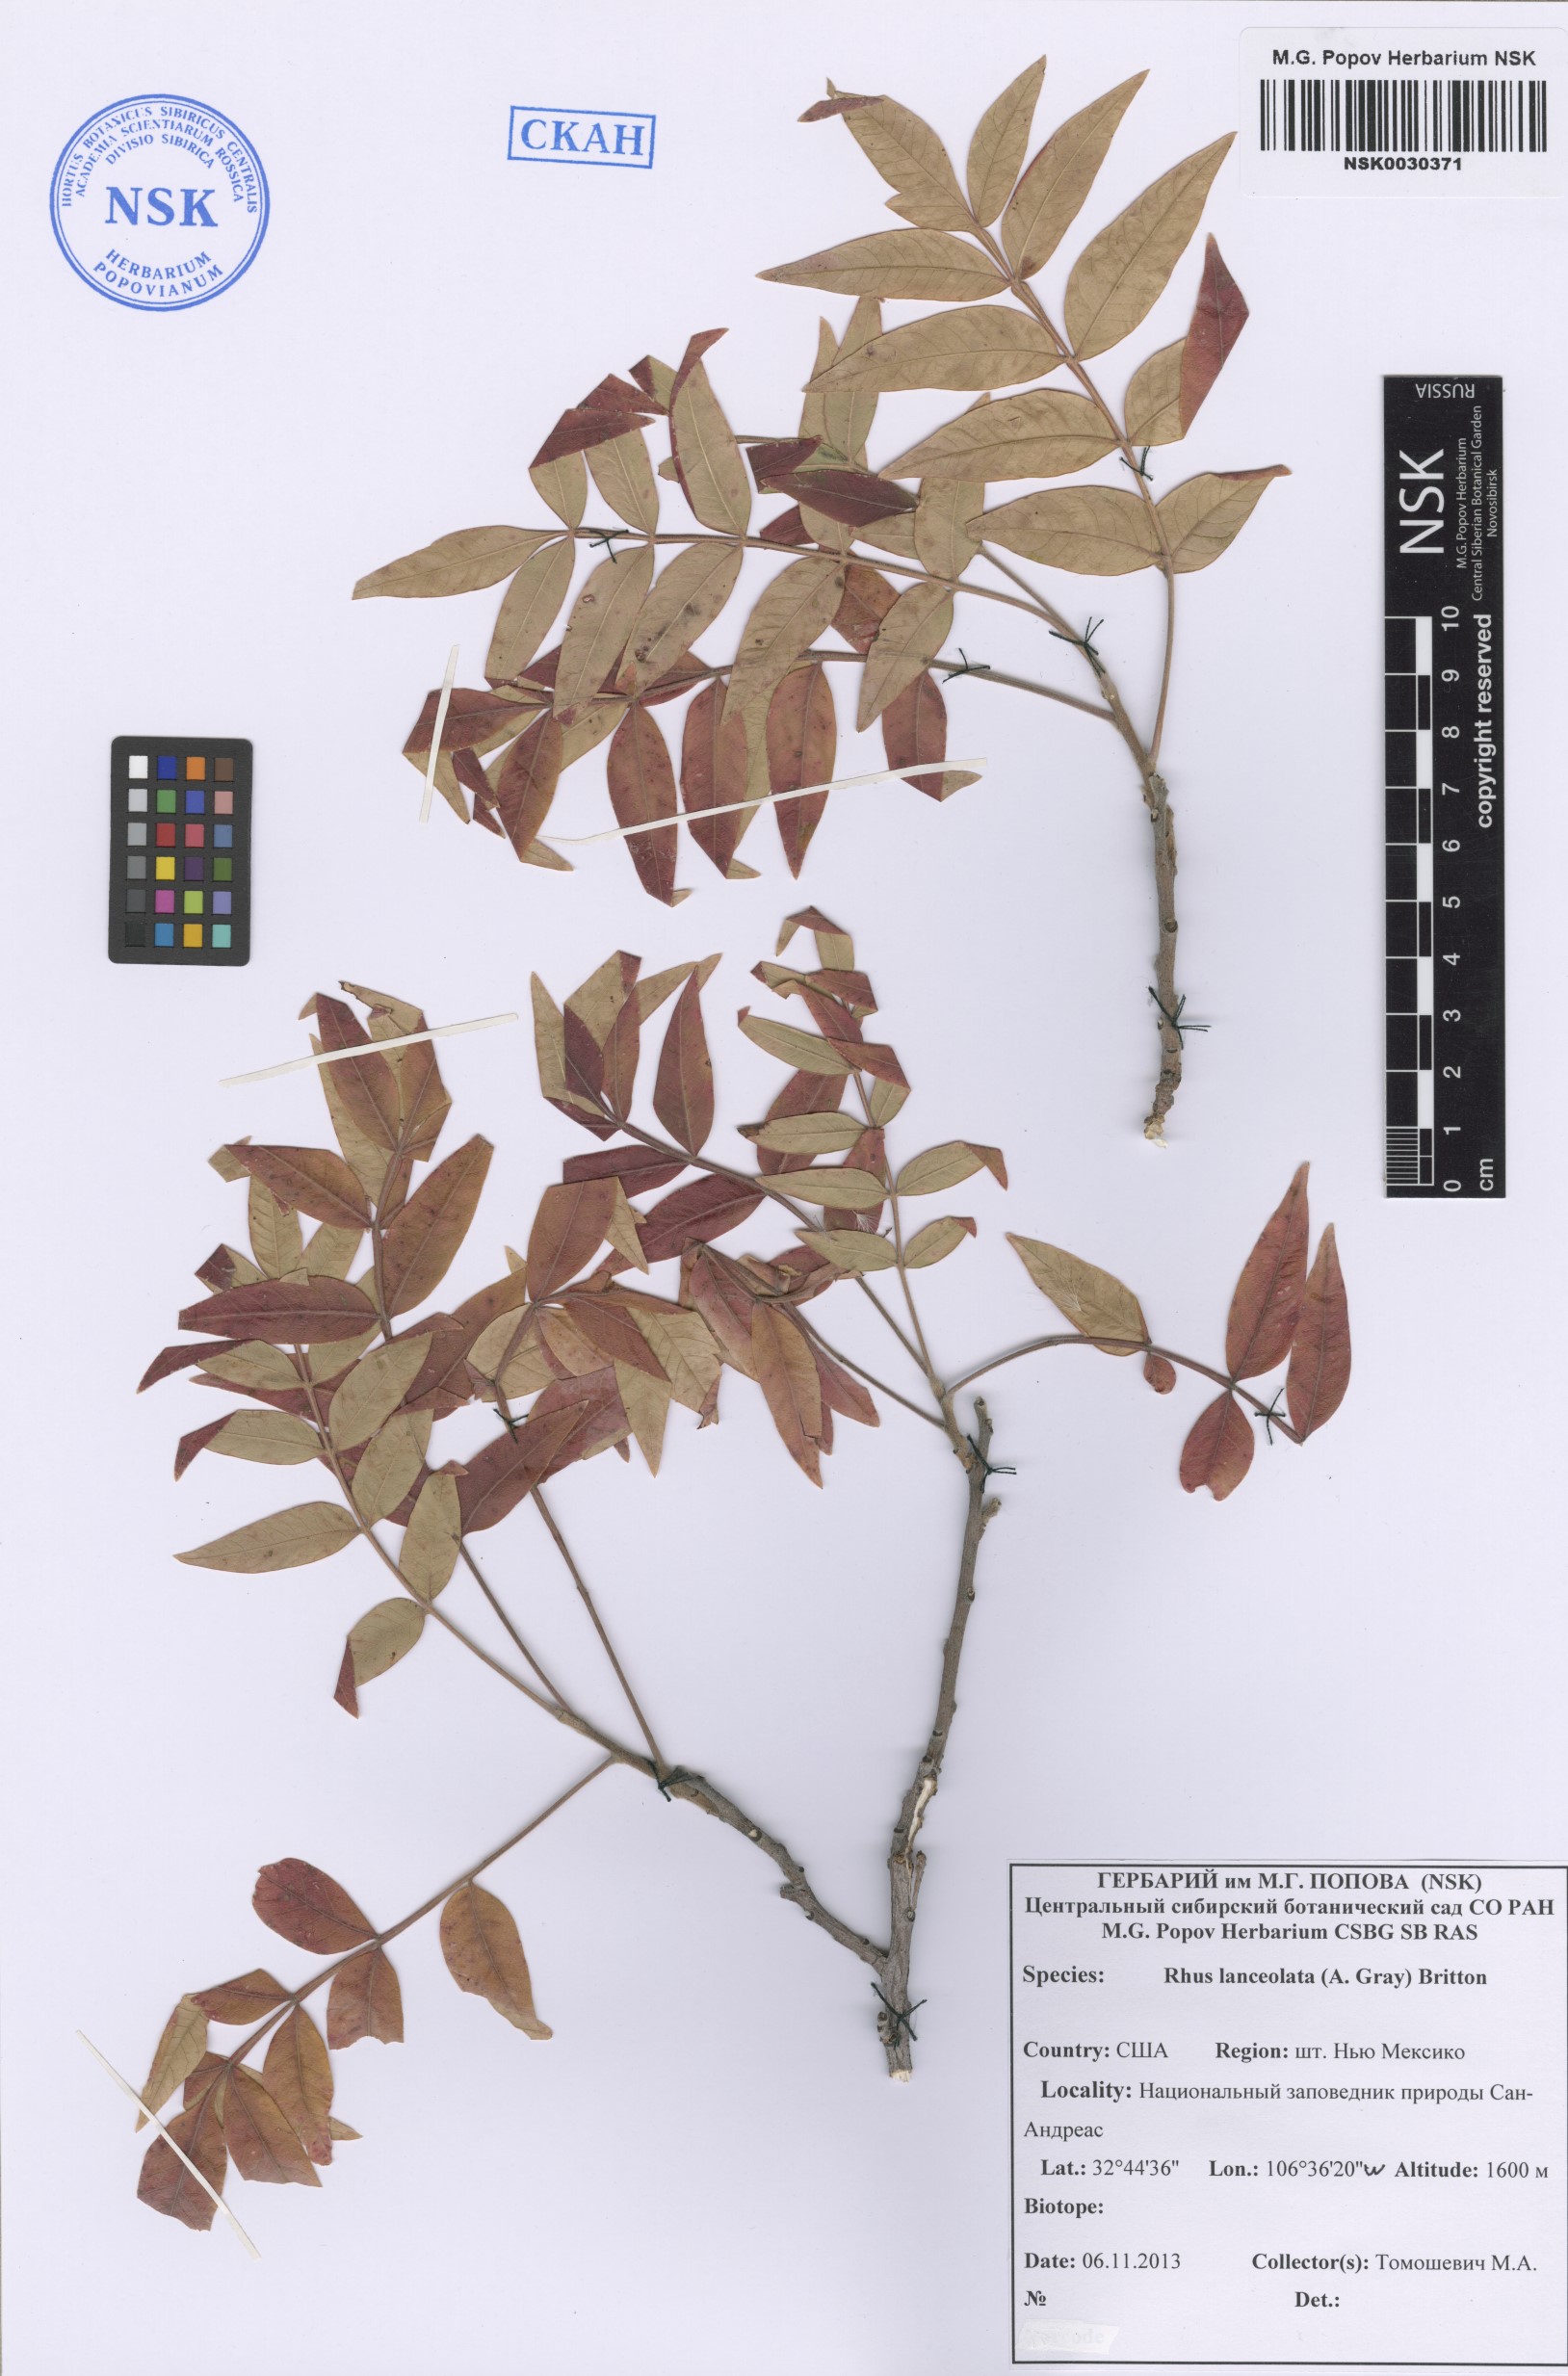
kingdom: Plantae
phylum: Tracheophyta
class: Magnoliopsida
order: Sapindales
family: Anacardiaceae
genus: Rhus
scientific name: Rhus lanceolata
